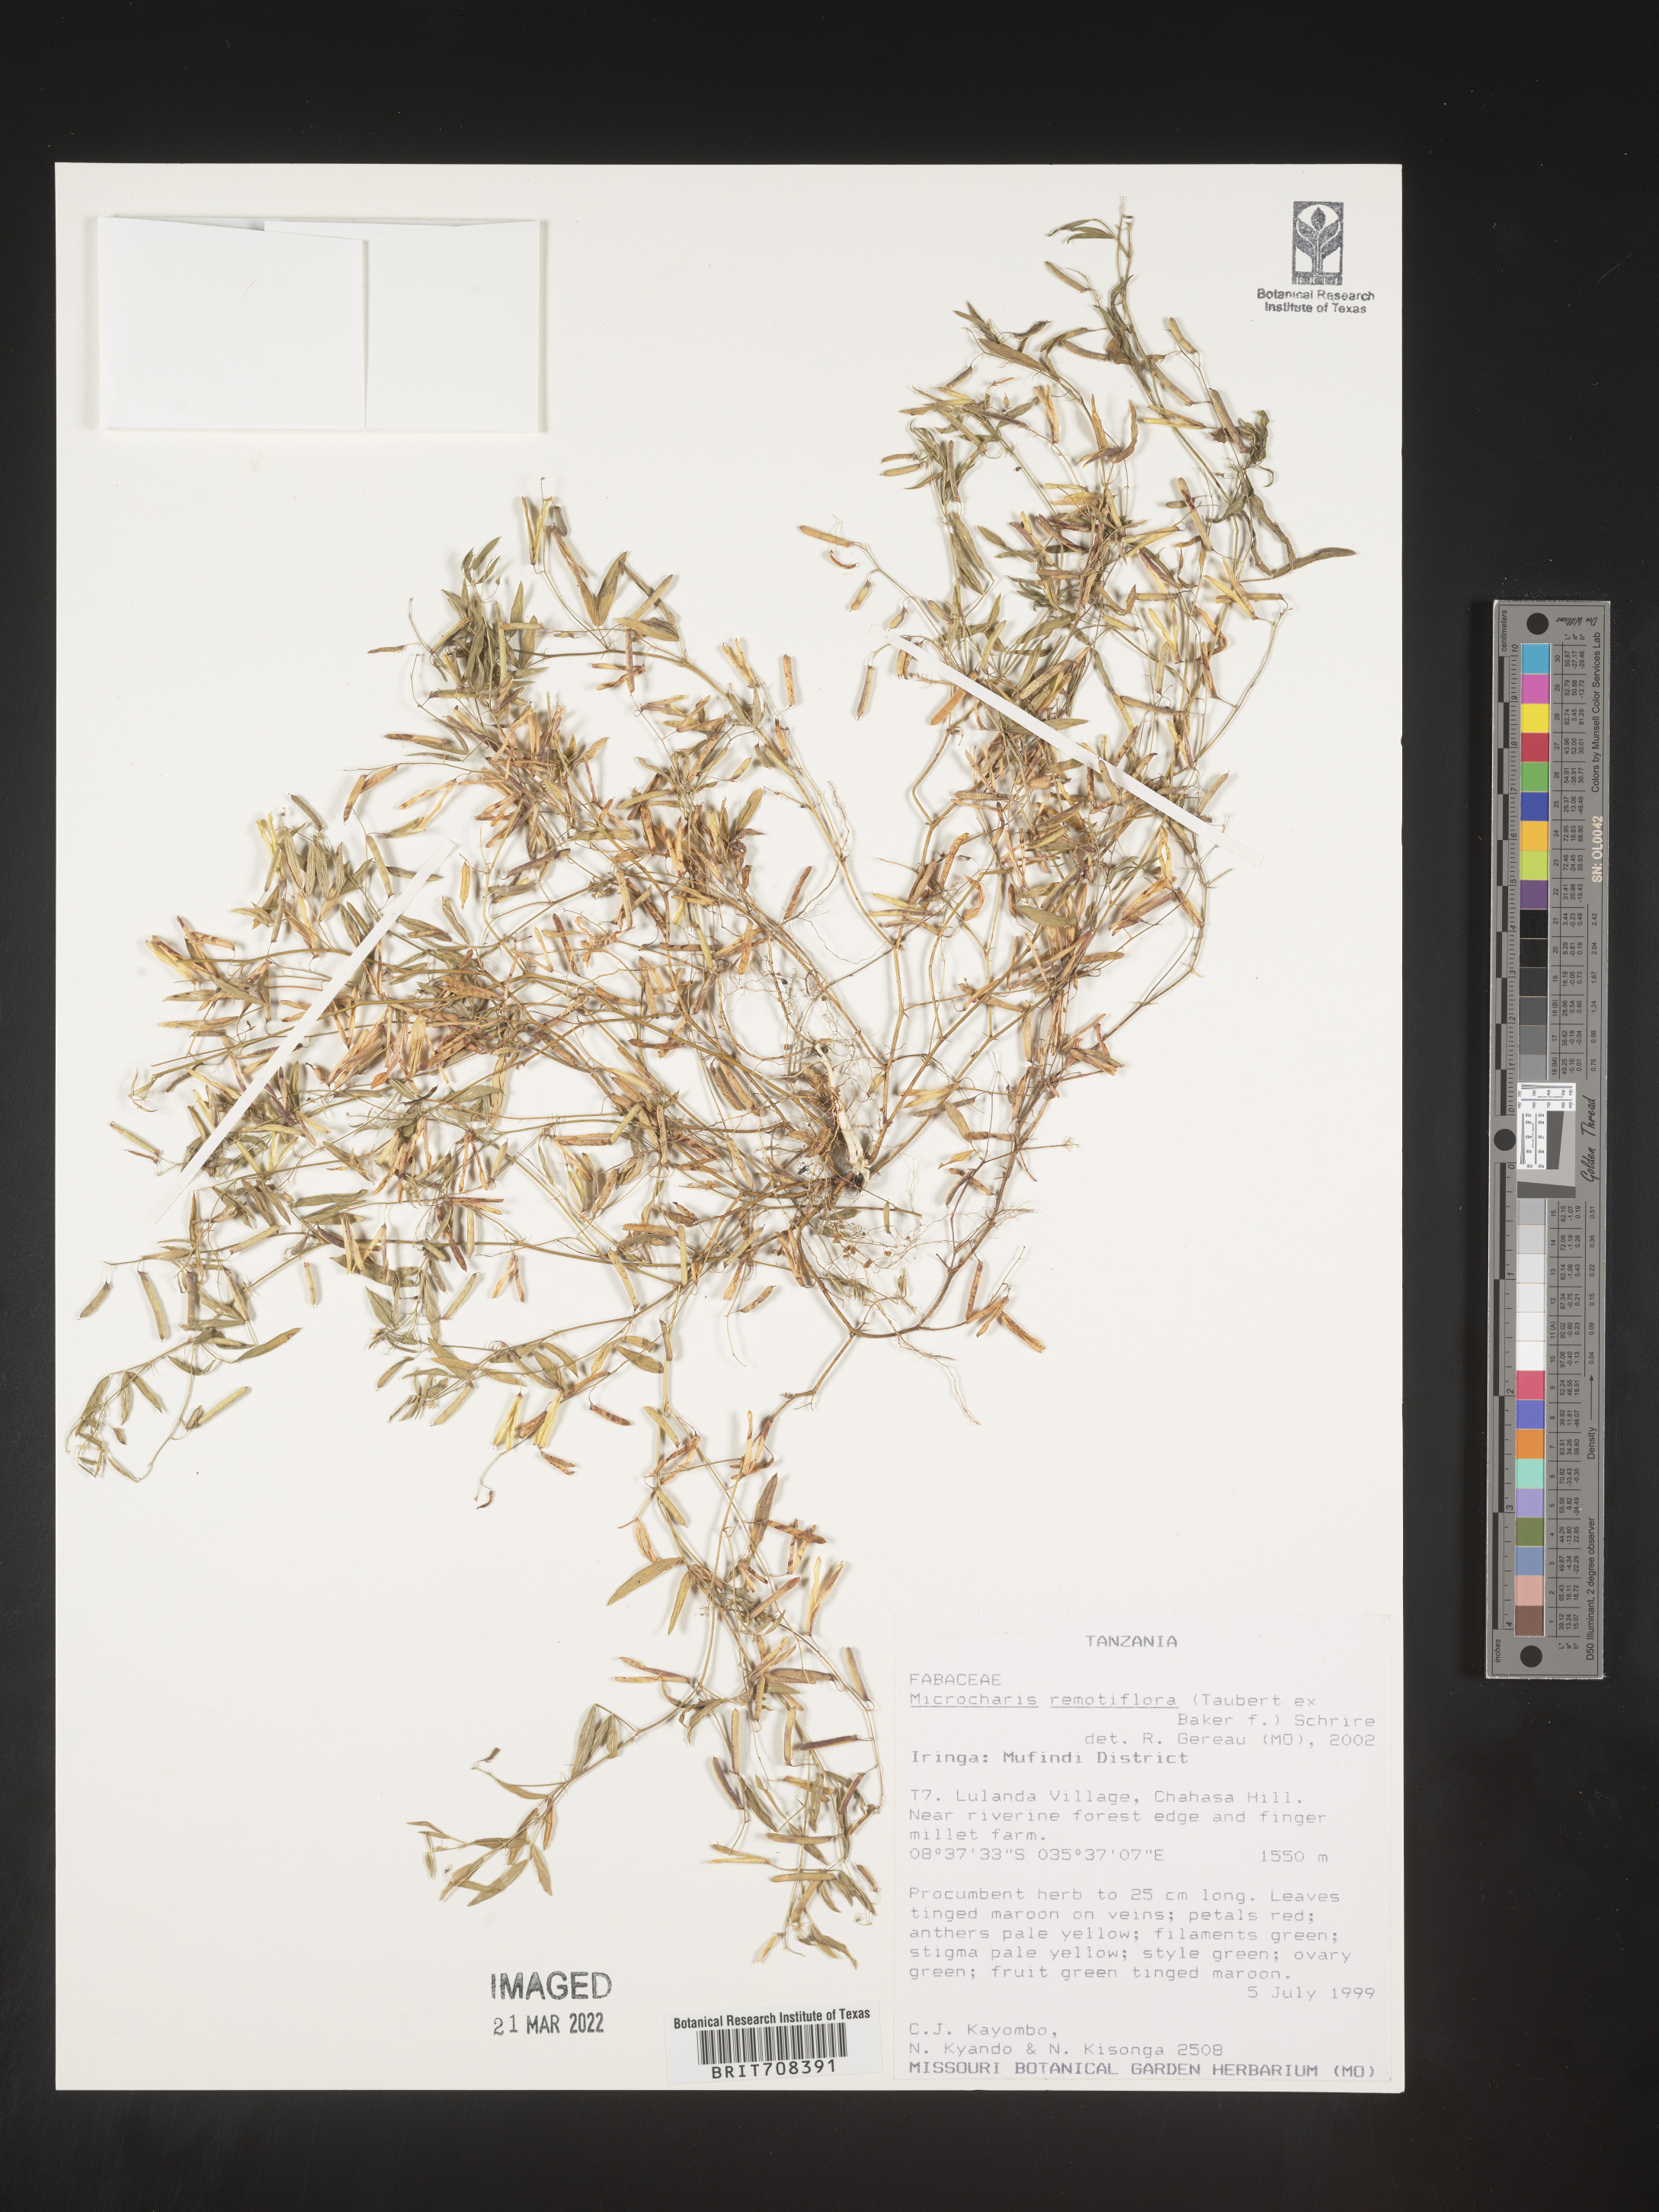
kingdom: Plantae
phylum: Tracheophyta
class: Magnoliopsida
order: Fabales
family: Fabaceae
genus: Microcharis
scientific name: Microcharis
